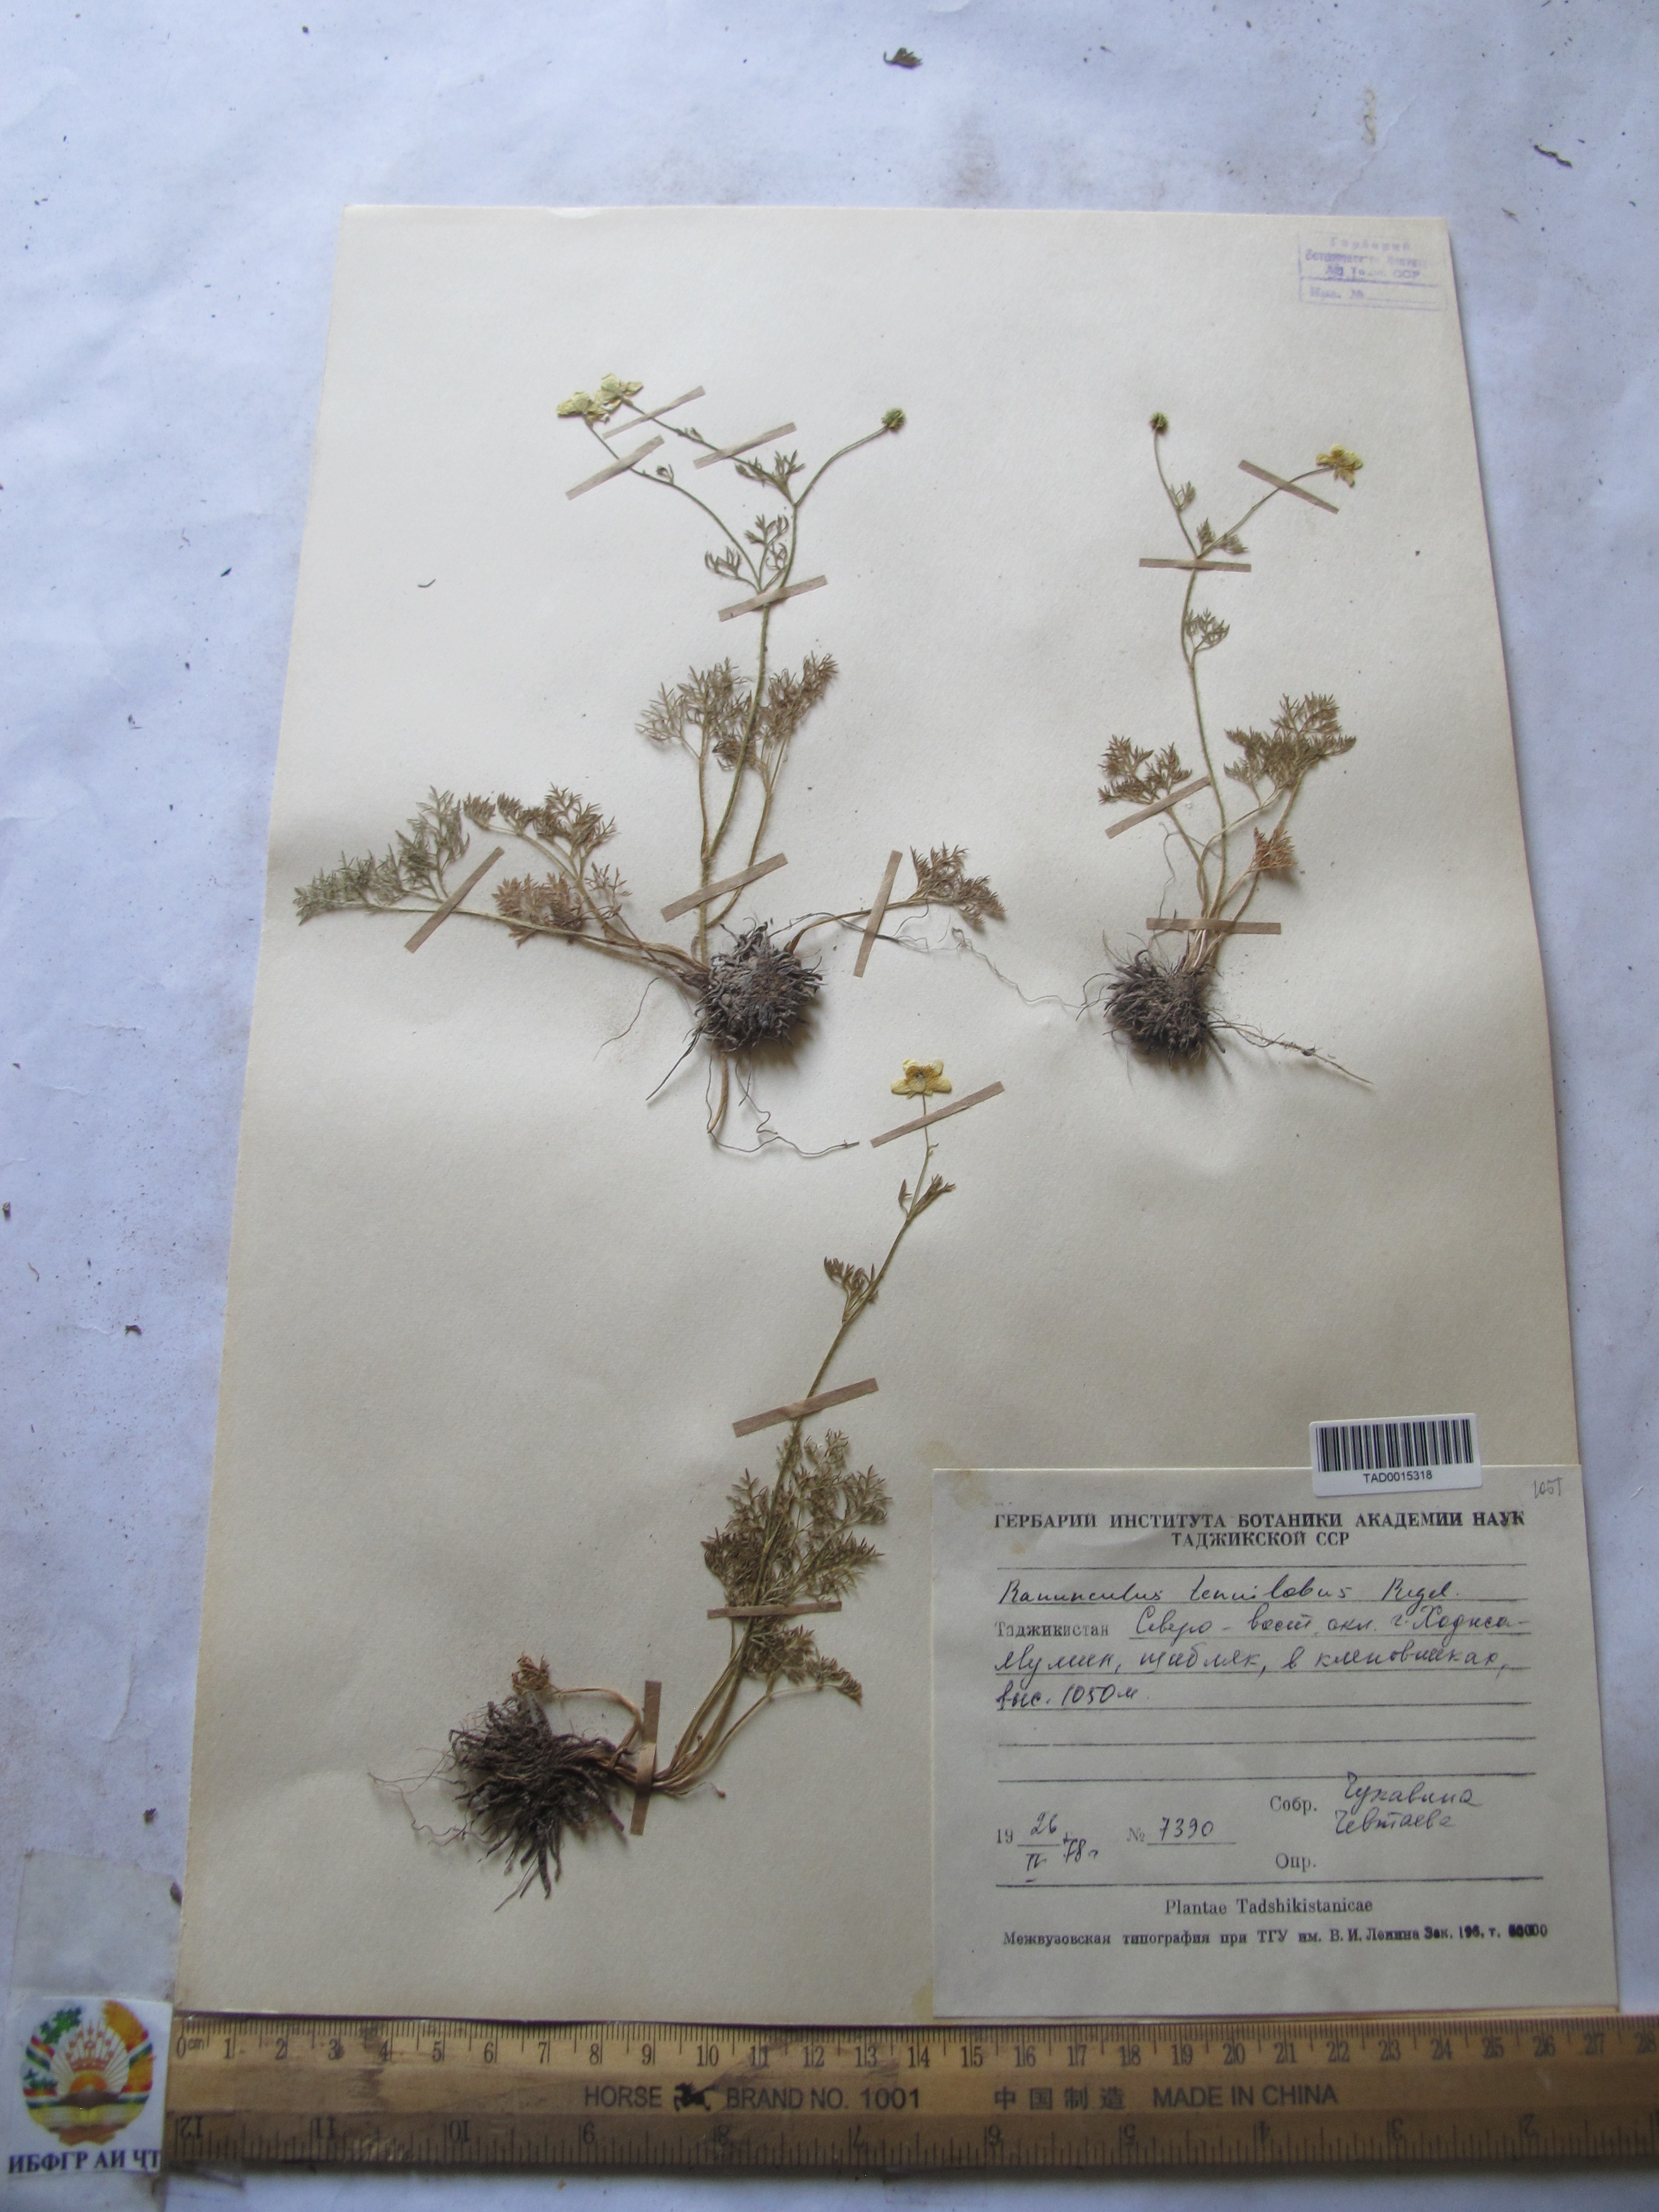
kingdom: Plantae
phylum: Tracheophyta
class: Magnoliopsida
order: Ranunculales
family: Ranunculaceae
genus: Ranunculus
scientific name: Ranunculus tenuilobus
